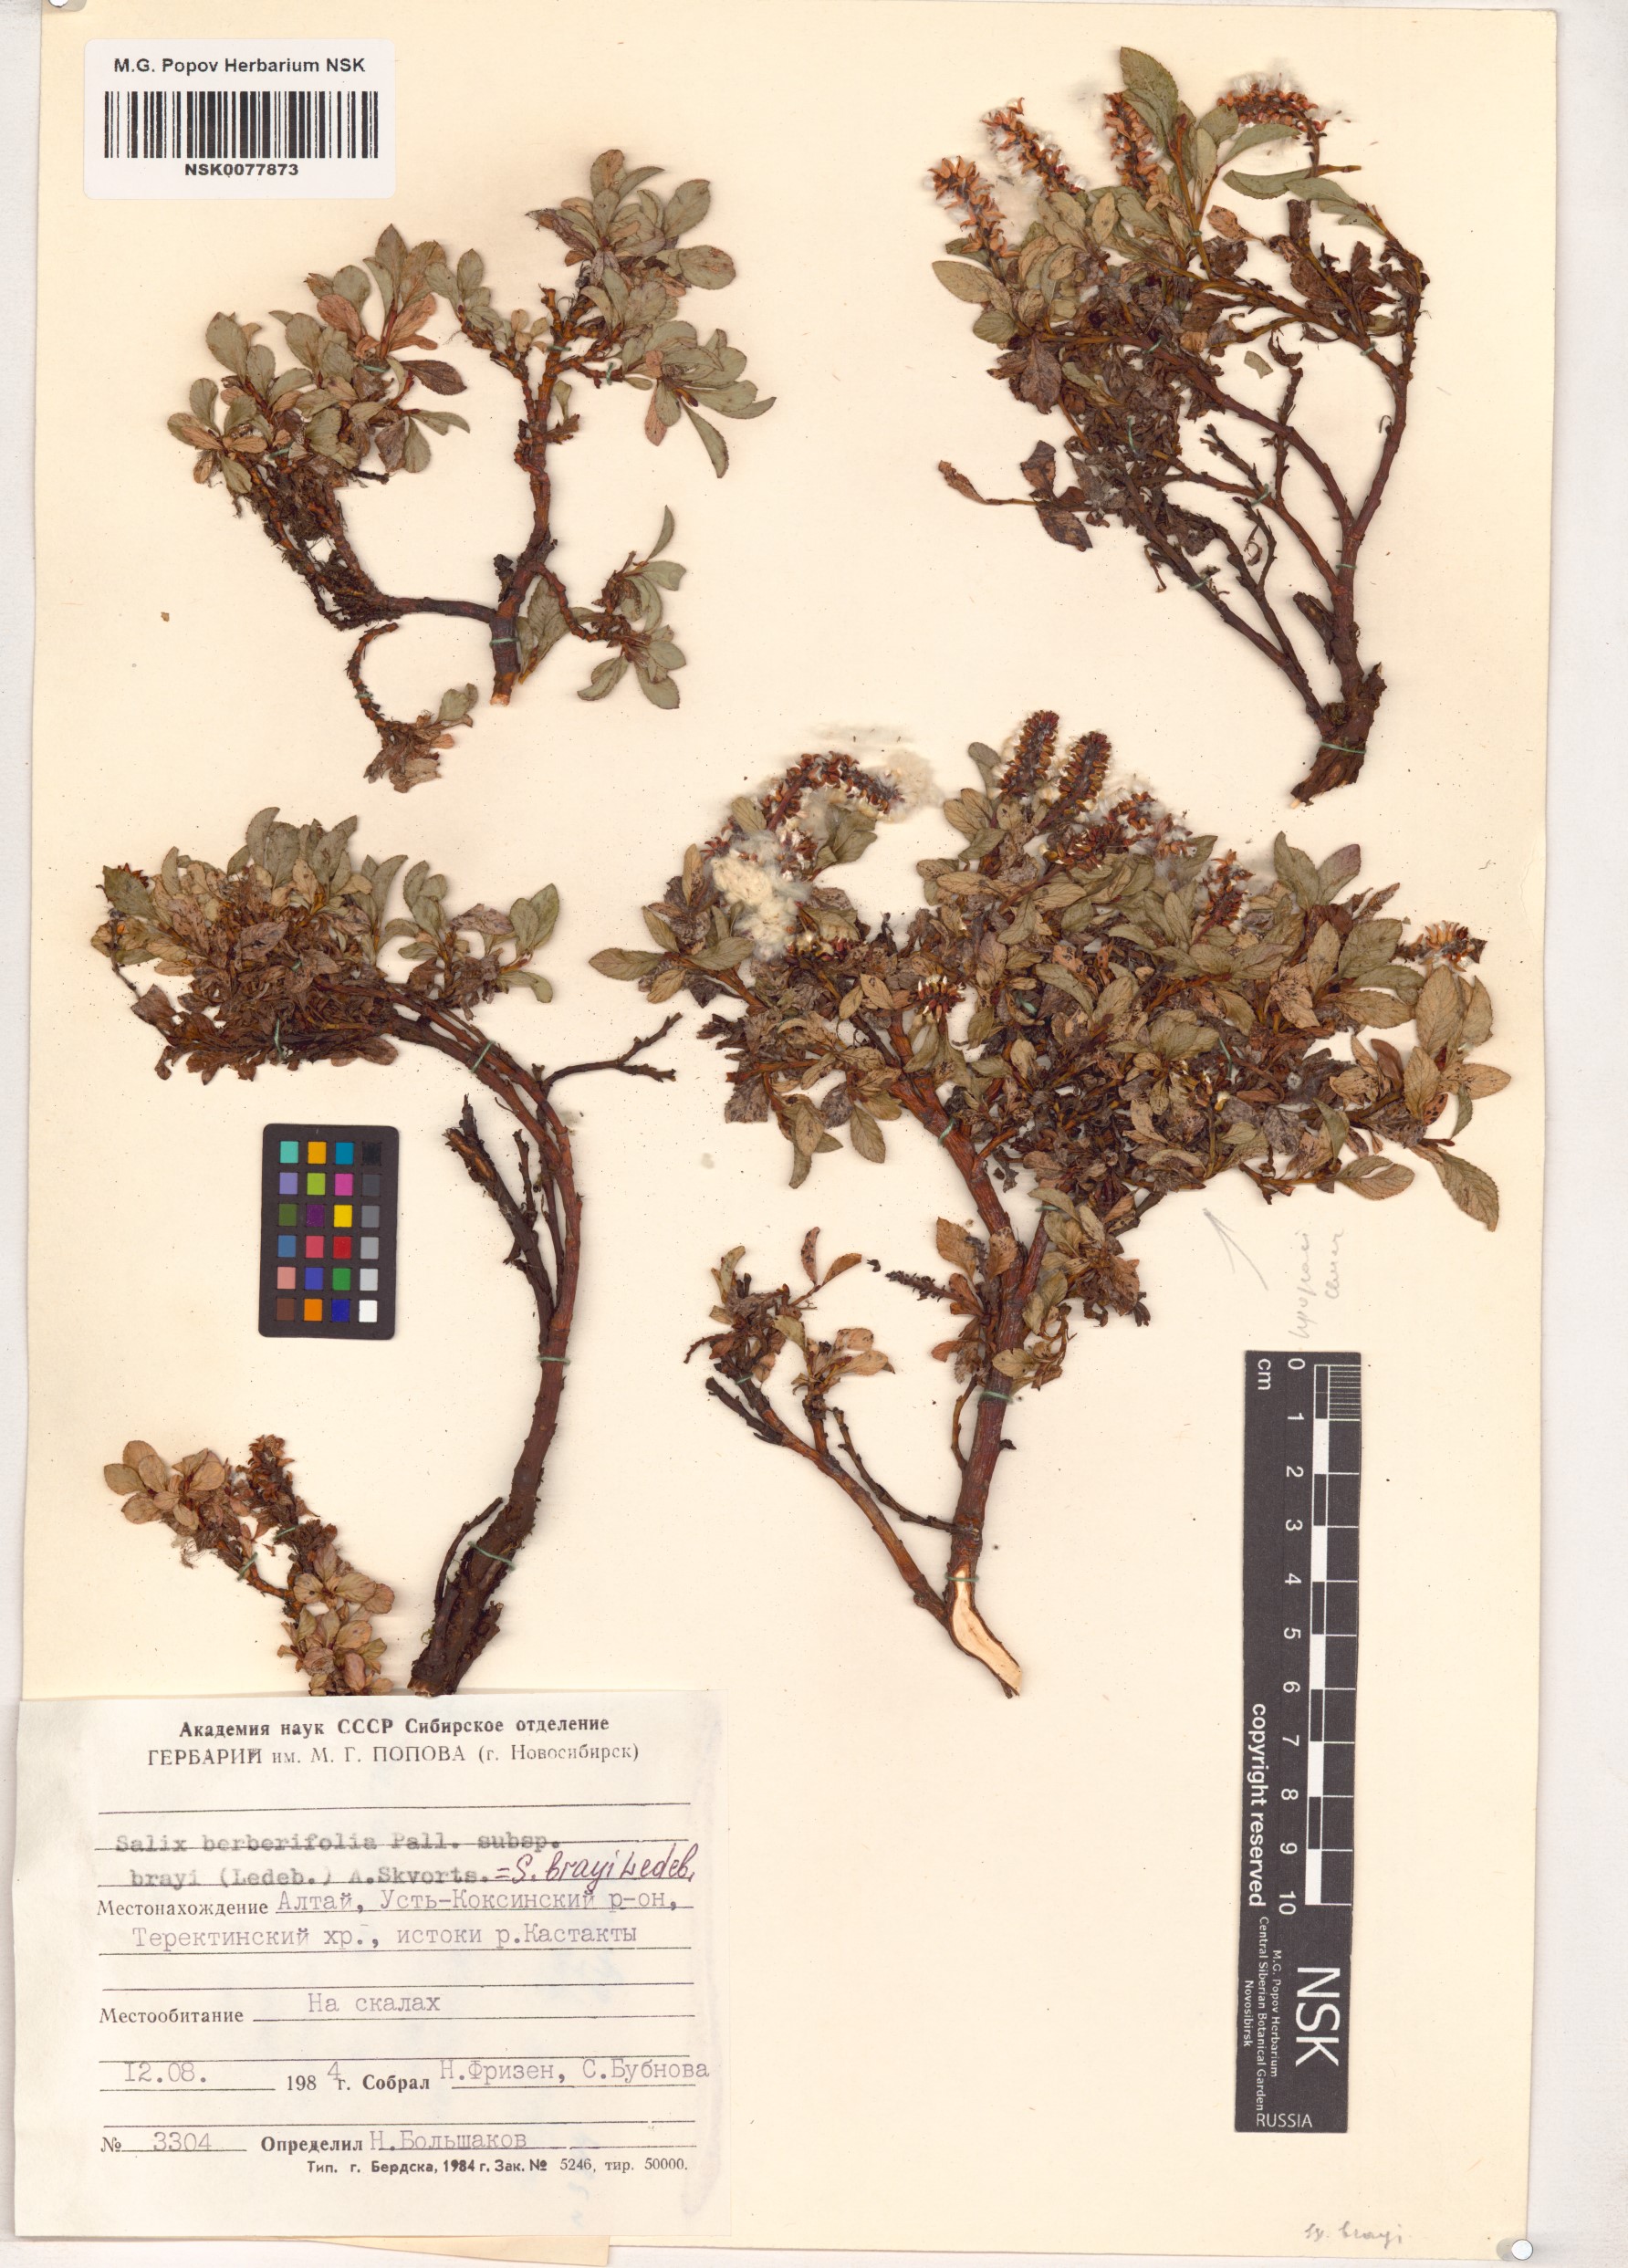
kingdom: Plantae
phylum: Tracheophyta
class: Magnoliopsida
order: Malpighiales
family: Salicaceae
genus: Salix
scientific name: Salix berberifolia
